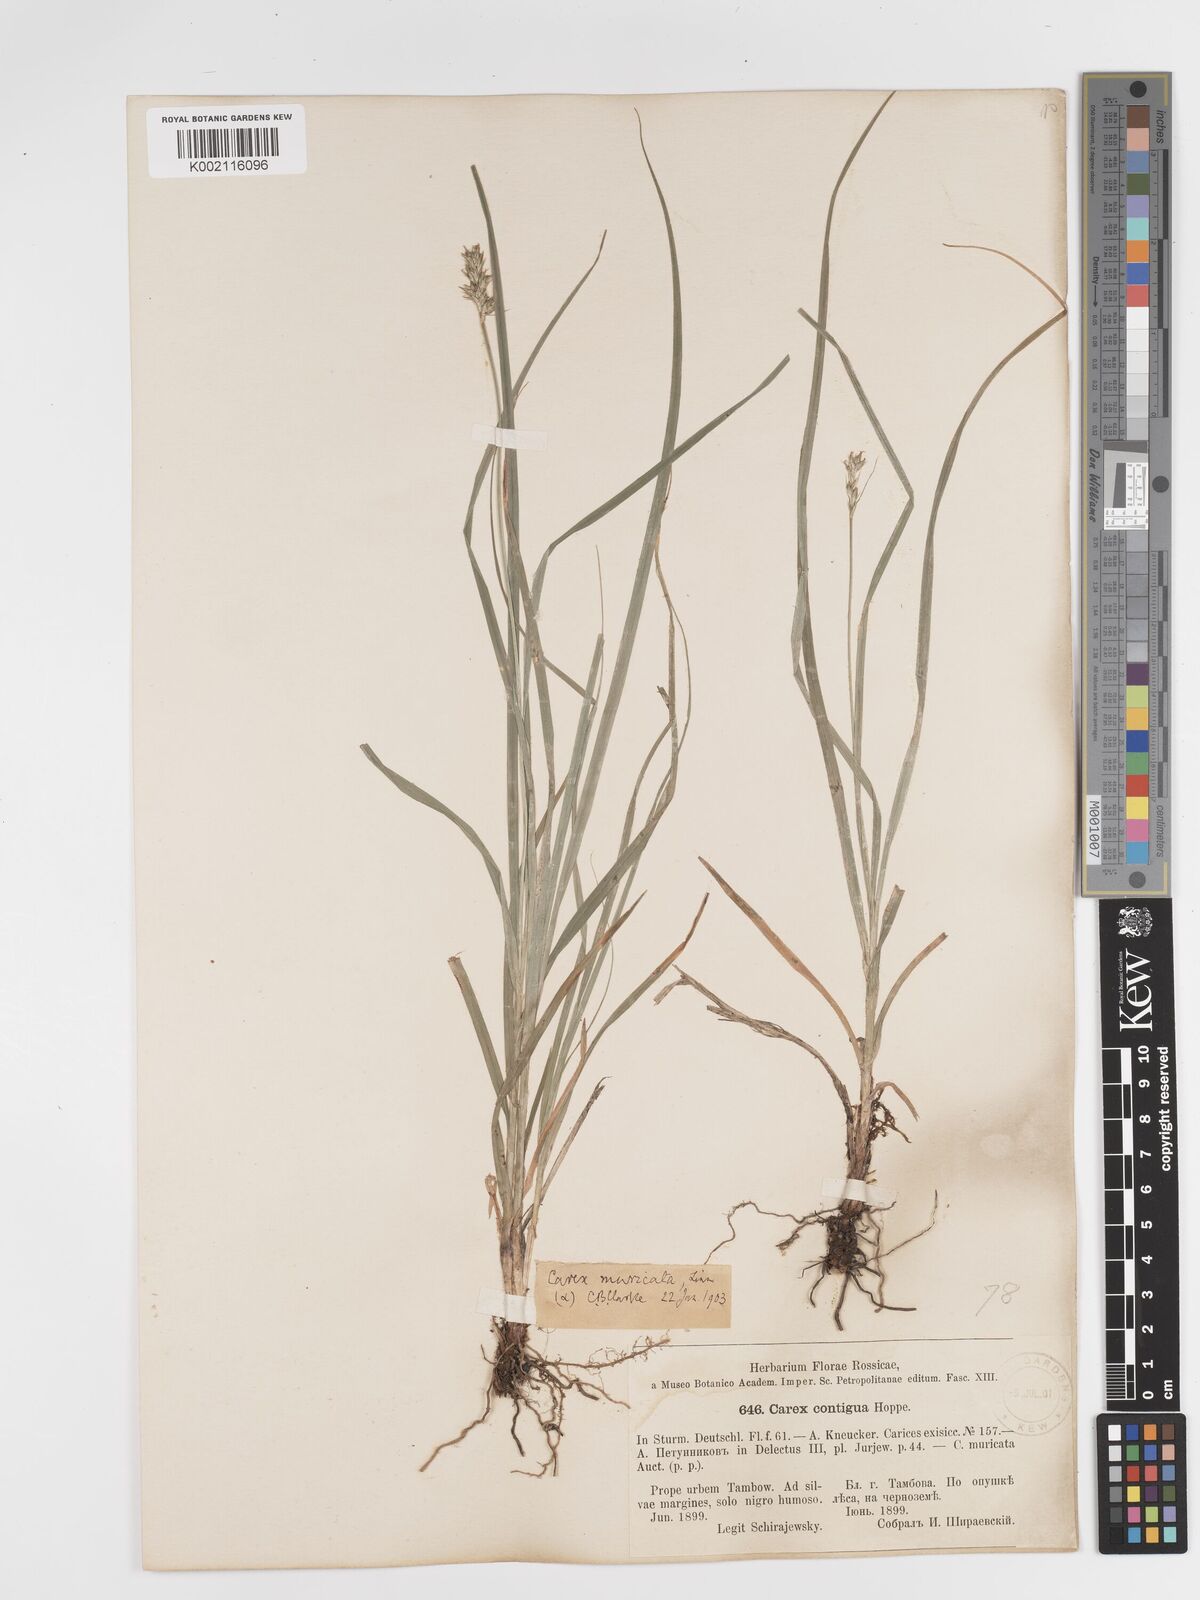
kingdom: Plantae
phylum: Tracheophyta
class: Liliopsida
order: Poales
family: Cyperaceae
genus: Carex
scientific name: Carex spicata
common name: Spiked sedge
